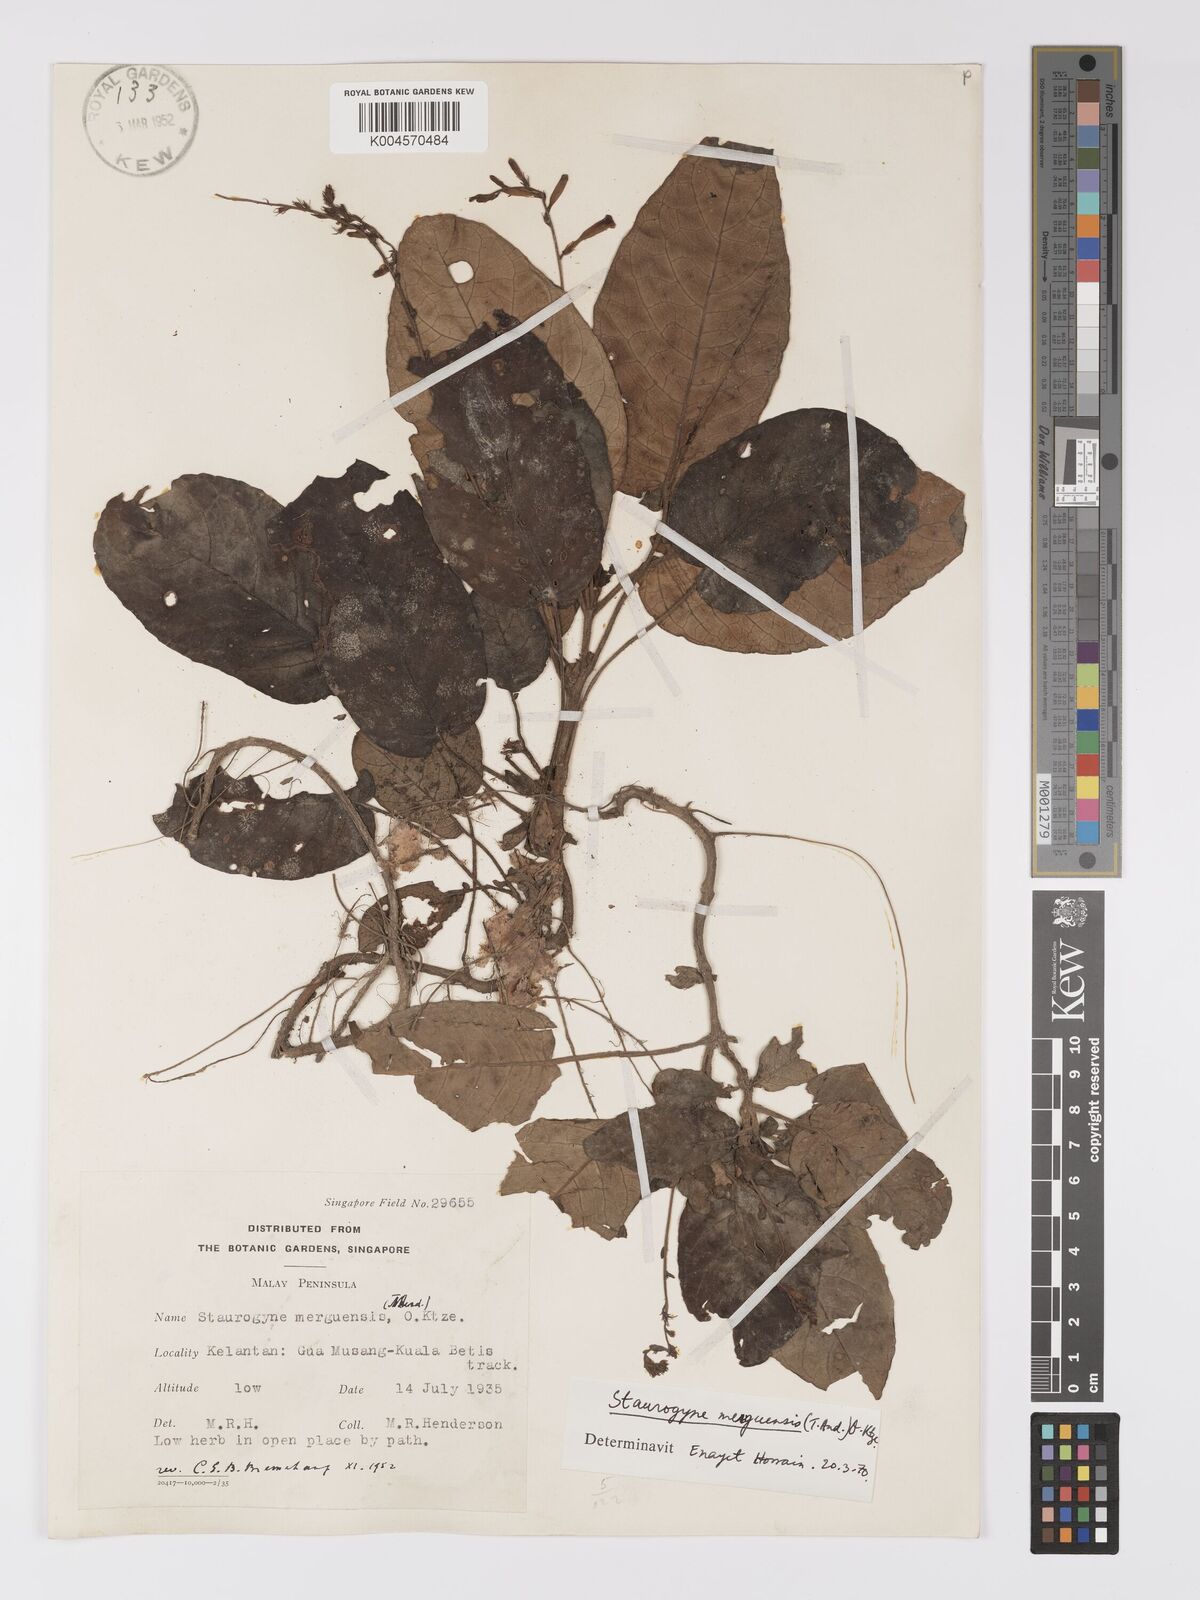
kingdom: Plantae
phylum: Tracheophyta
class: Magnoliopsida
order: Lamiales
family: Acanthaceae
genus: Staurogyne
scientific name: Staurogyne merguensis
